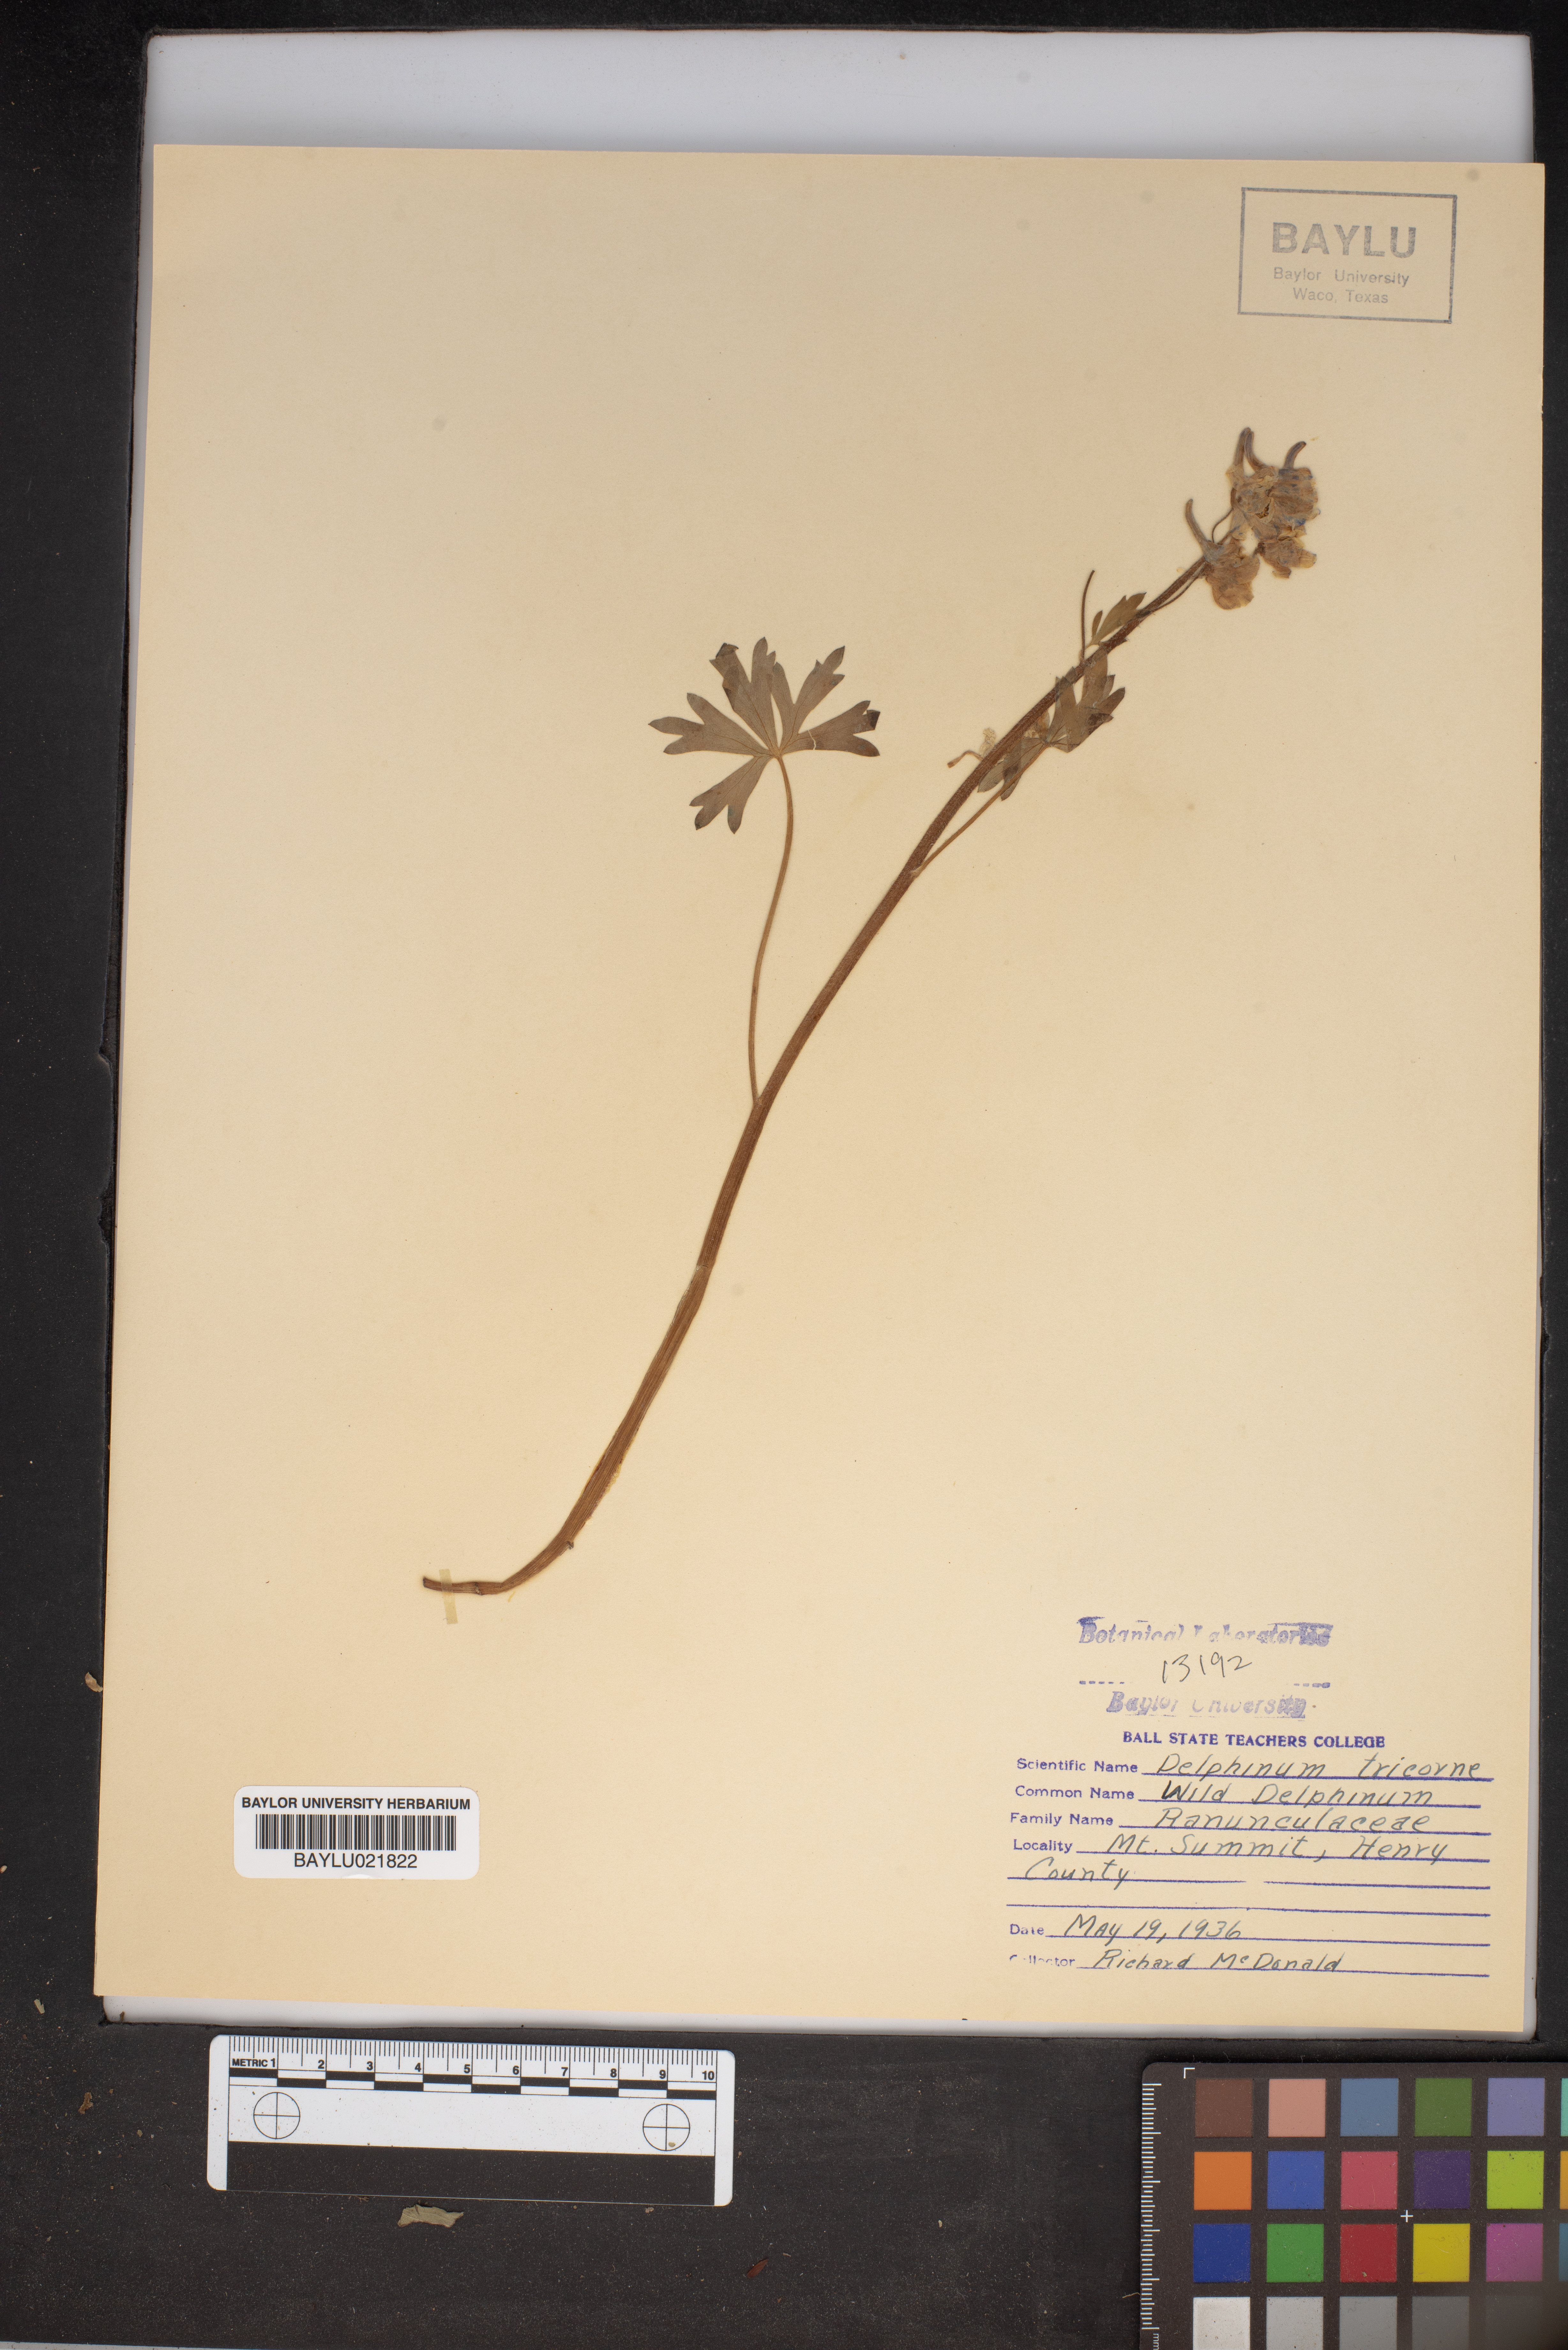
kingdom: Plantae
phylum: Tracheophyta
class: Magnoliopsida
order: Ranunculales
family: Ranunculaceae
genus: Delphinium
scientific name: Delphinium tricorne
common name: Dwarf larkspur
